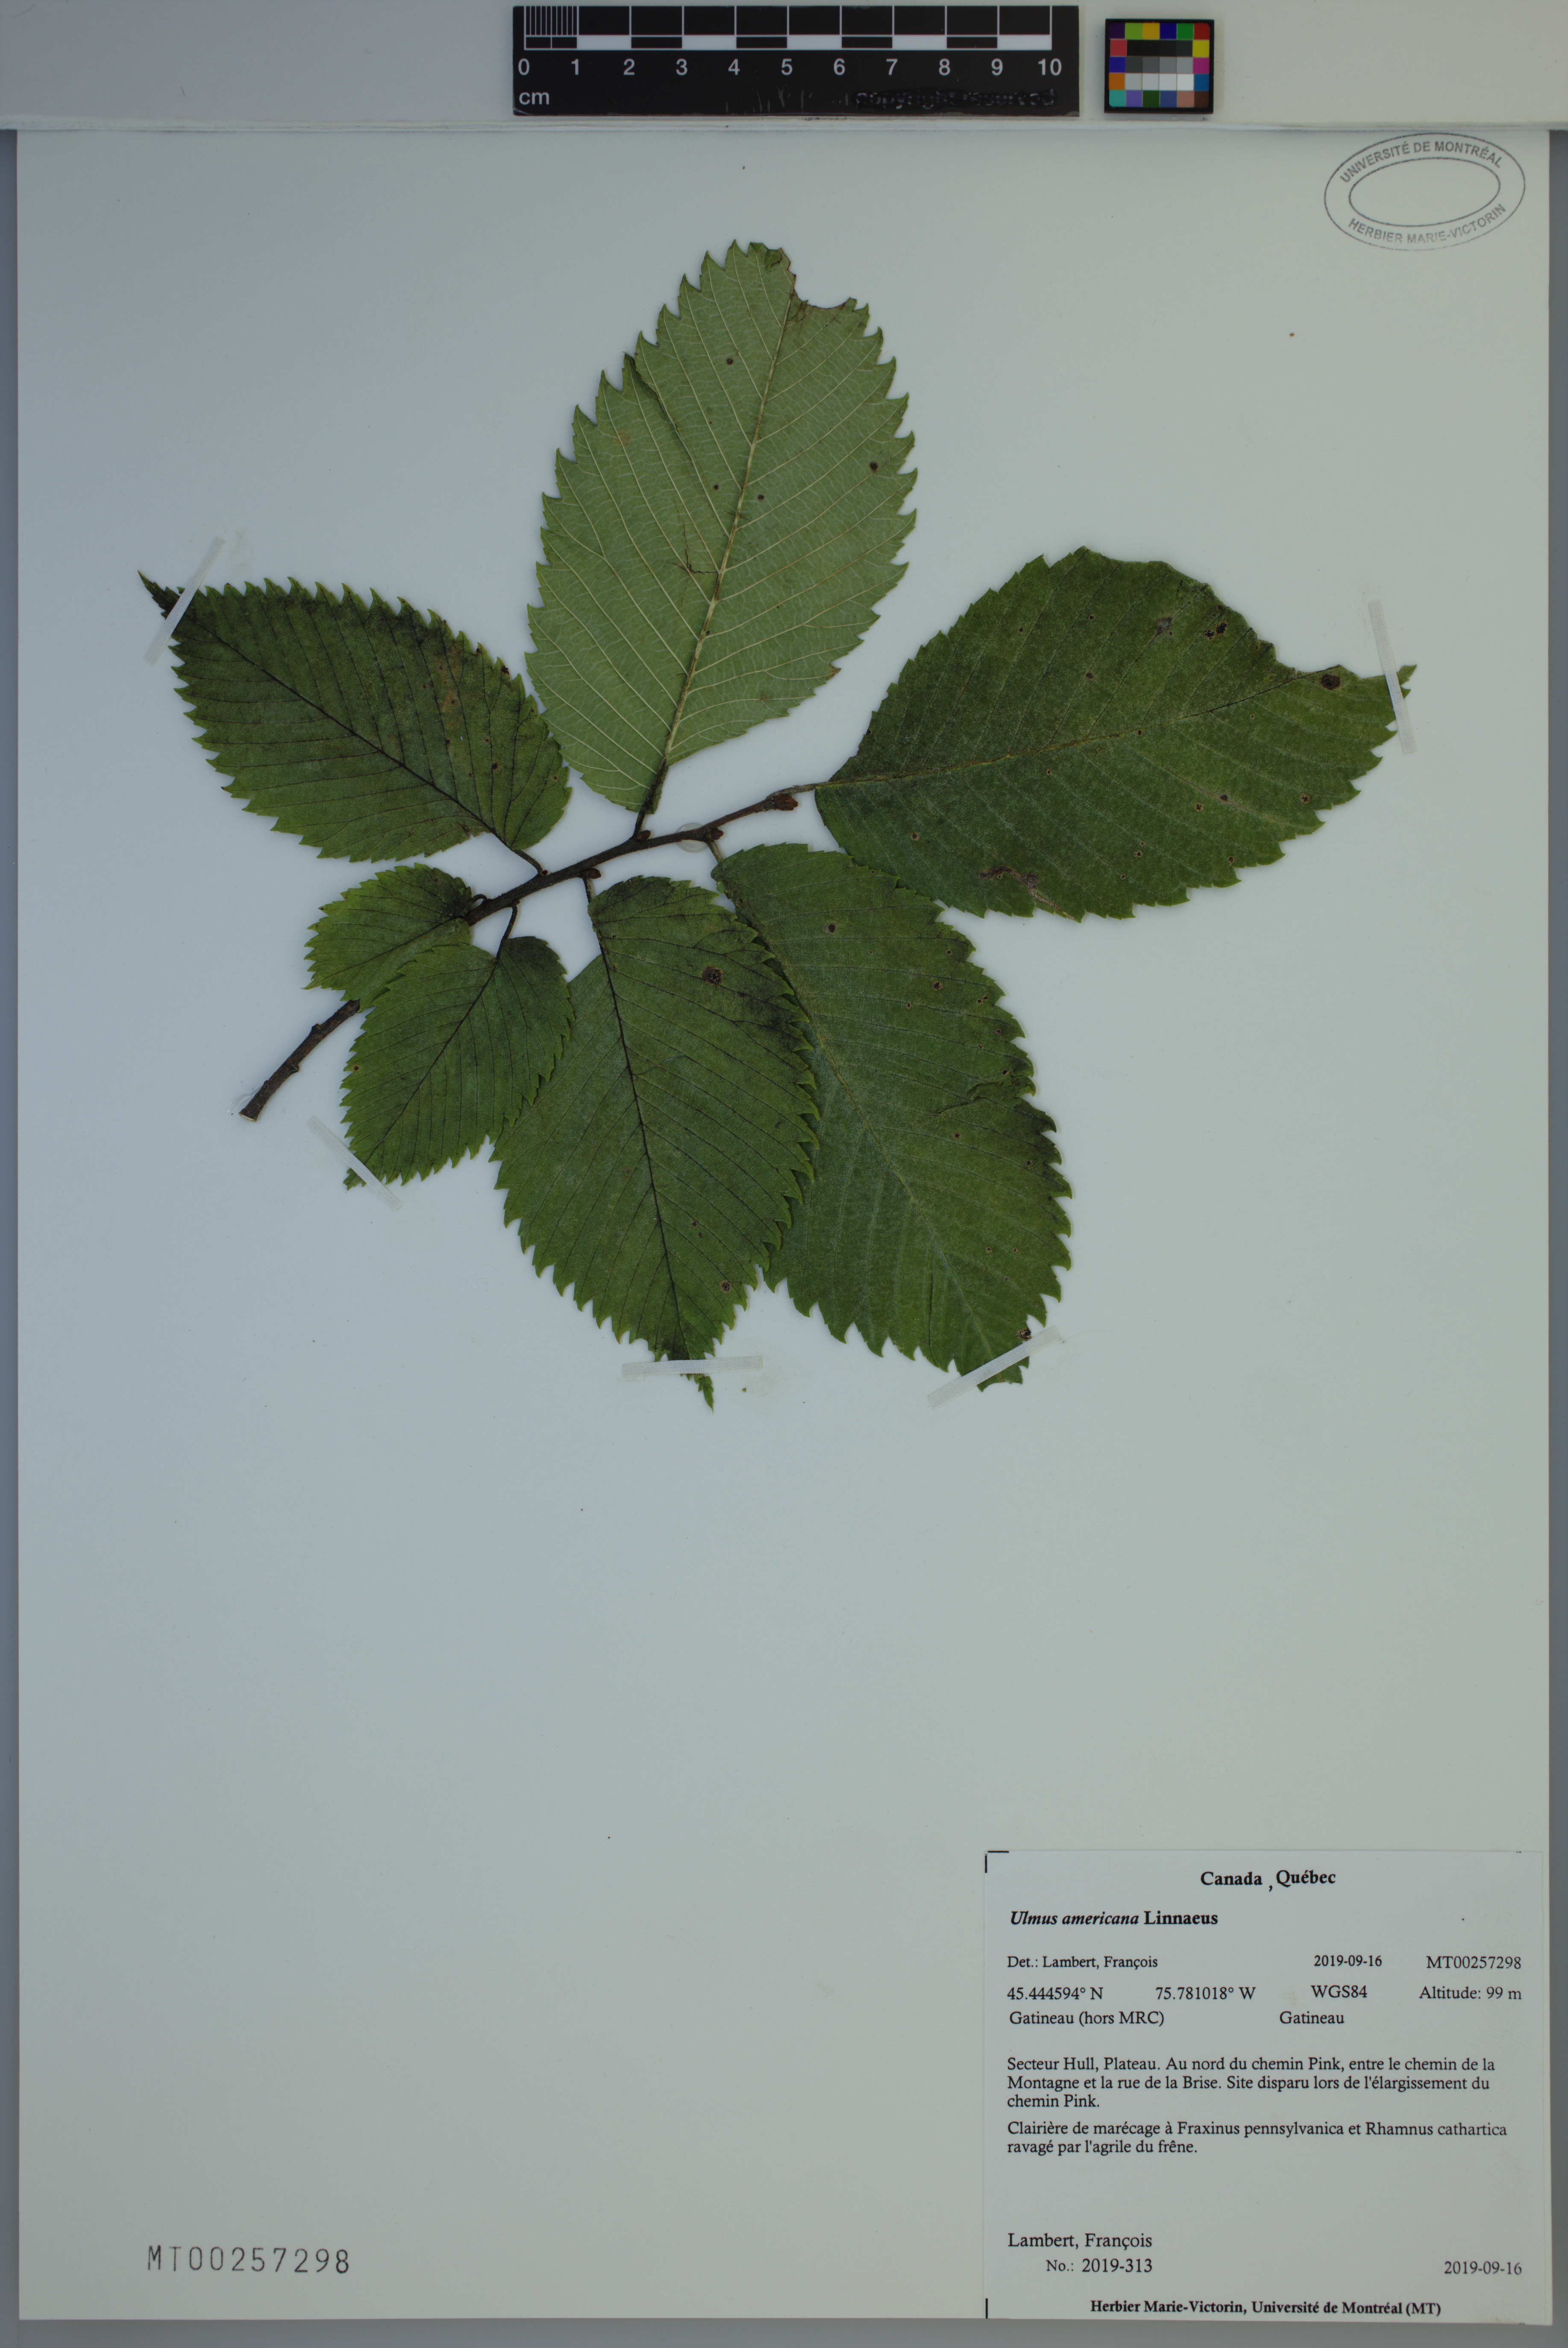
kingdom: Plantae
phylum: Tracheophyta
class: Magnoliopsida
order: Rosales
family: Ulmaceae
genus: Ulmus
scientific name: Ulmus americana
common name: American elm
